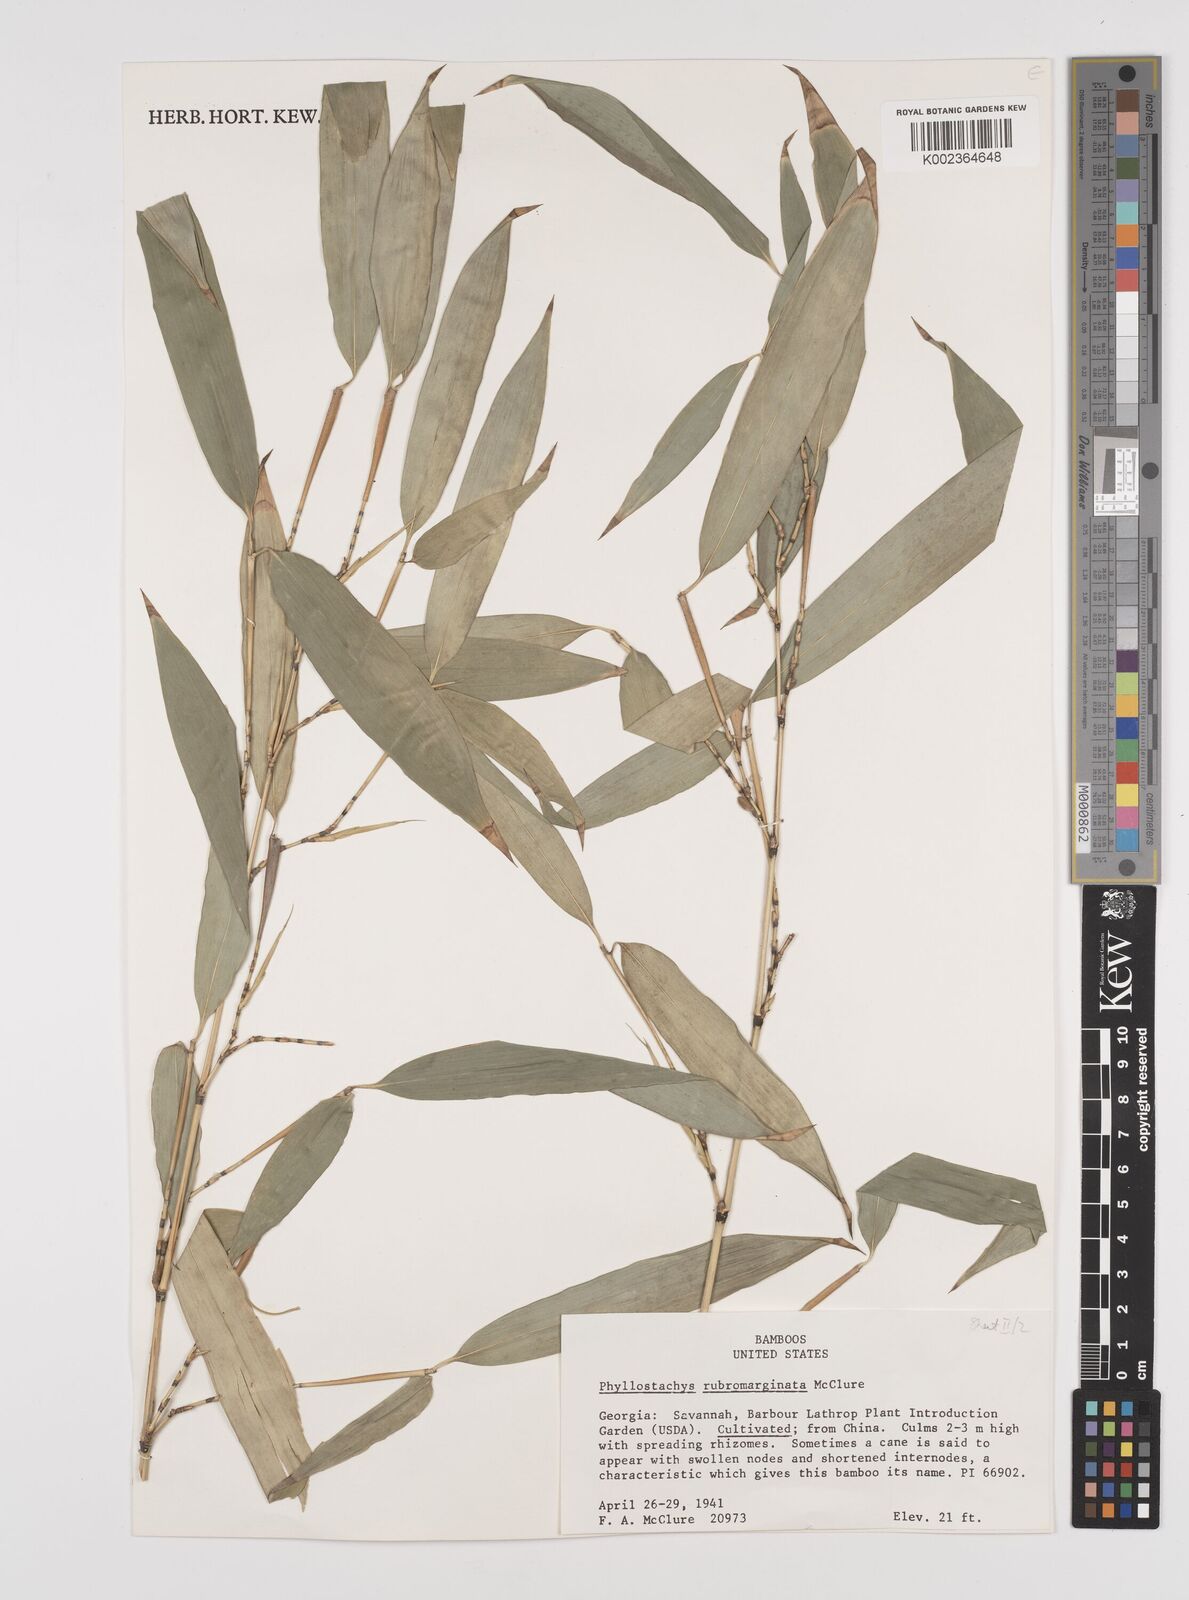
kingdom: Plantae
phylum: Tracheophyta
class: Liliopsida
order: Poales
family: Poaceae
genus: Phyllostachys
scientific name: Phyllostachys rubromarginata
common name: Reddish bamboo
